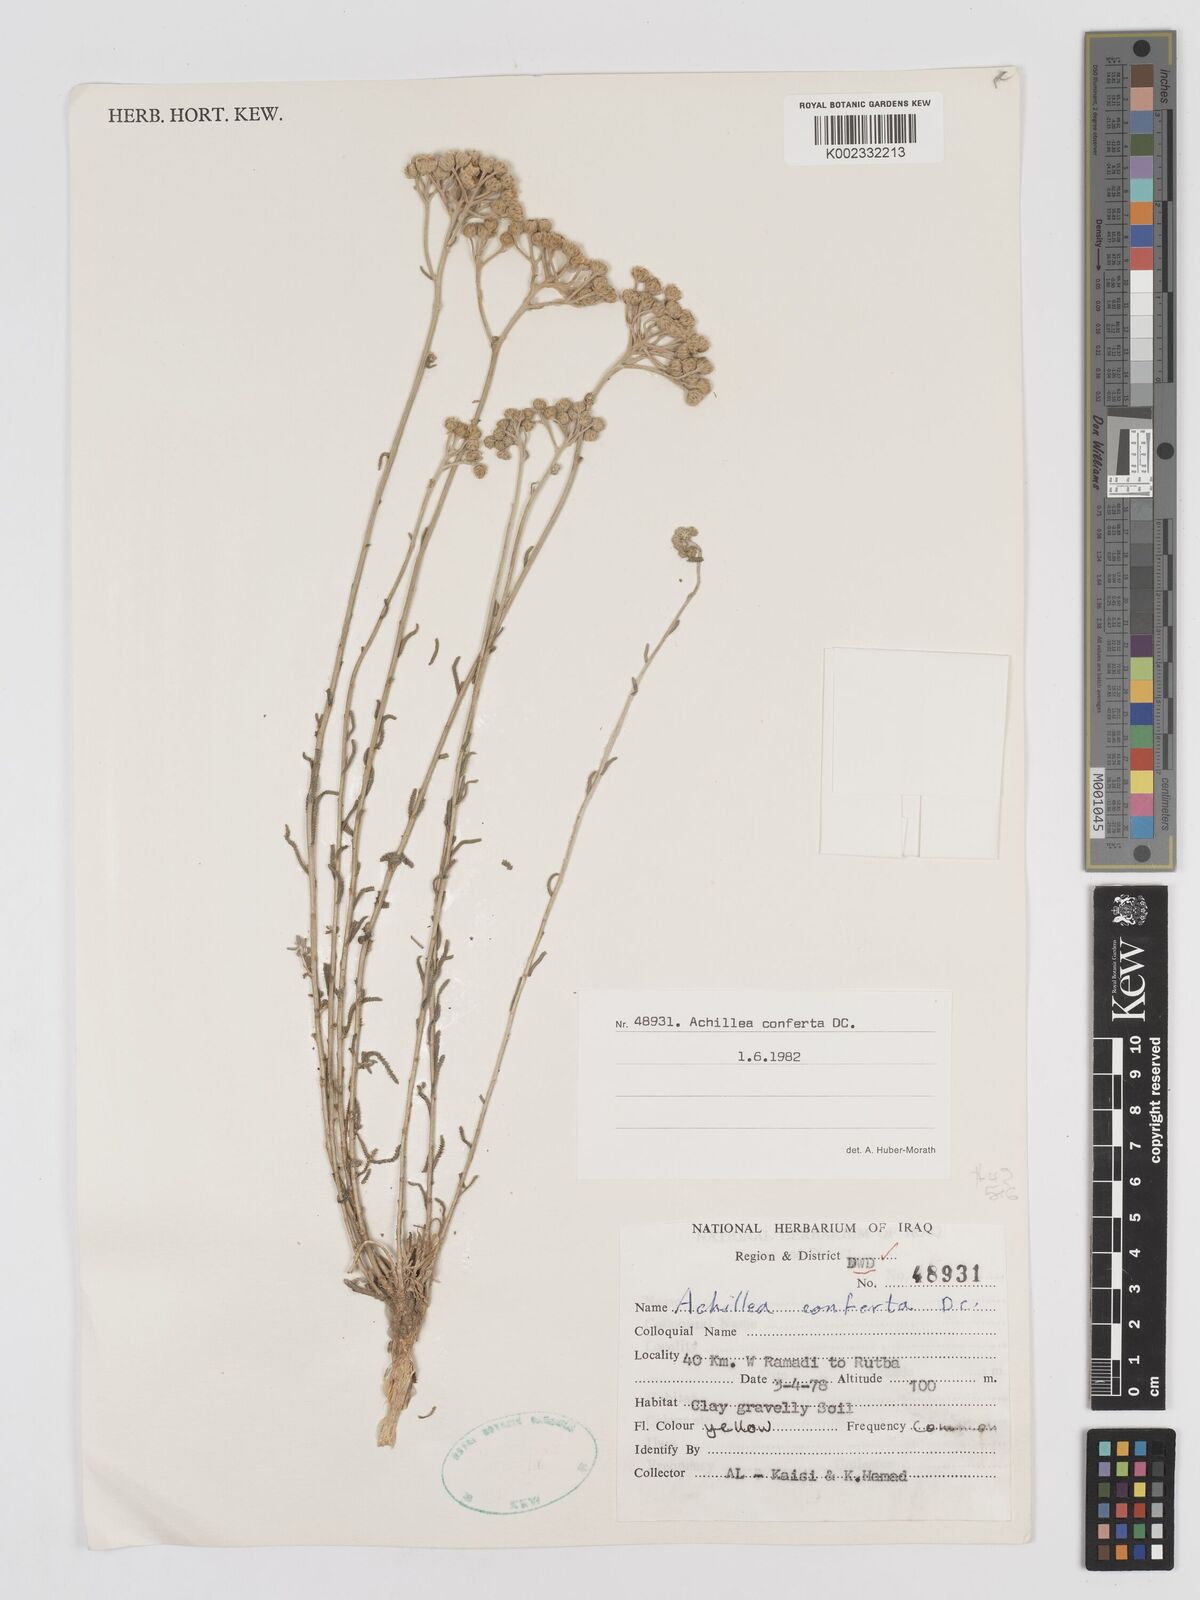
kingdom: Plantae
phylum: Tracheophyta
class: Magnoliopsida
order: Asterales
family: Asteraceae
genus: Achillea
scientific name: Achillea conferta
